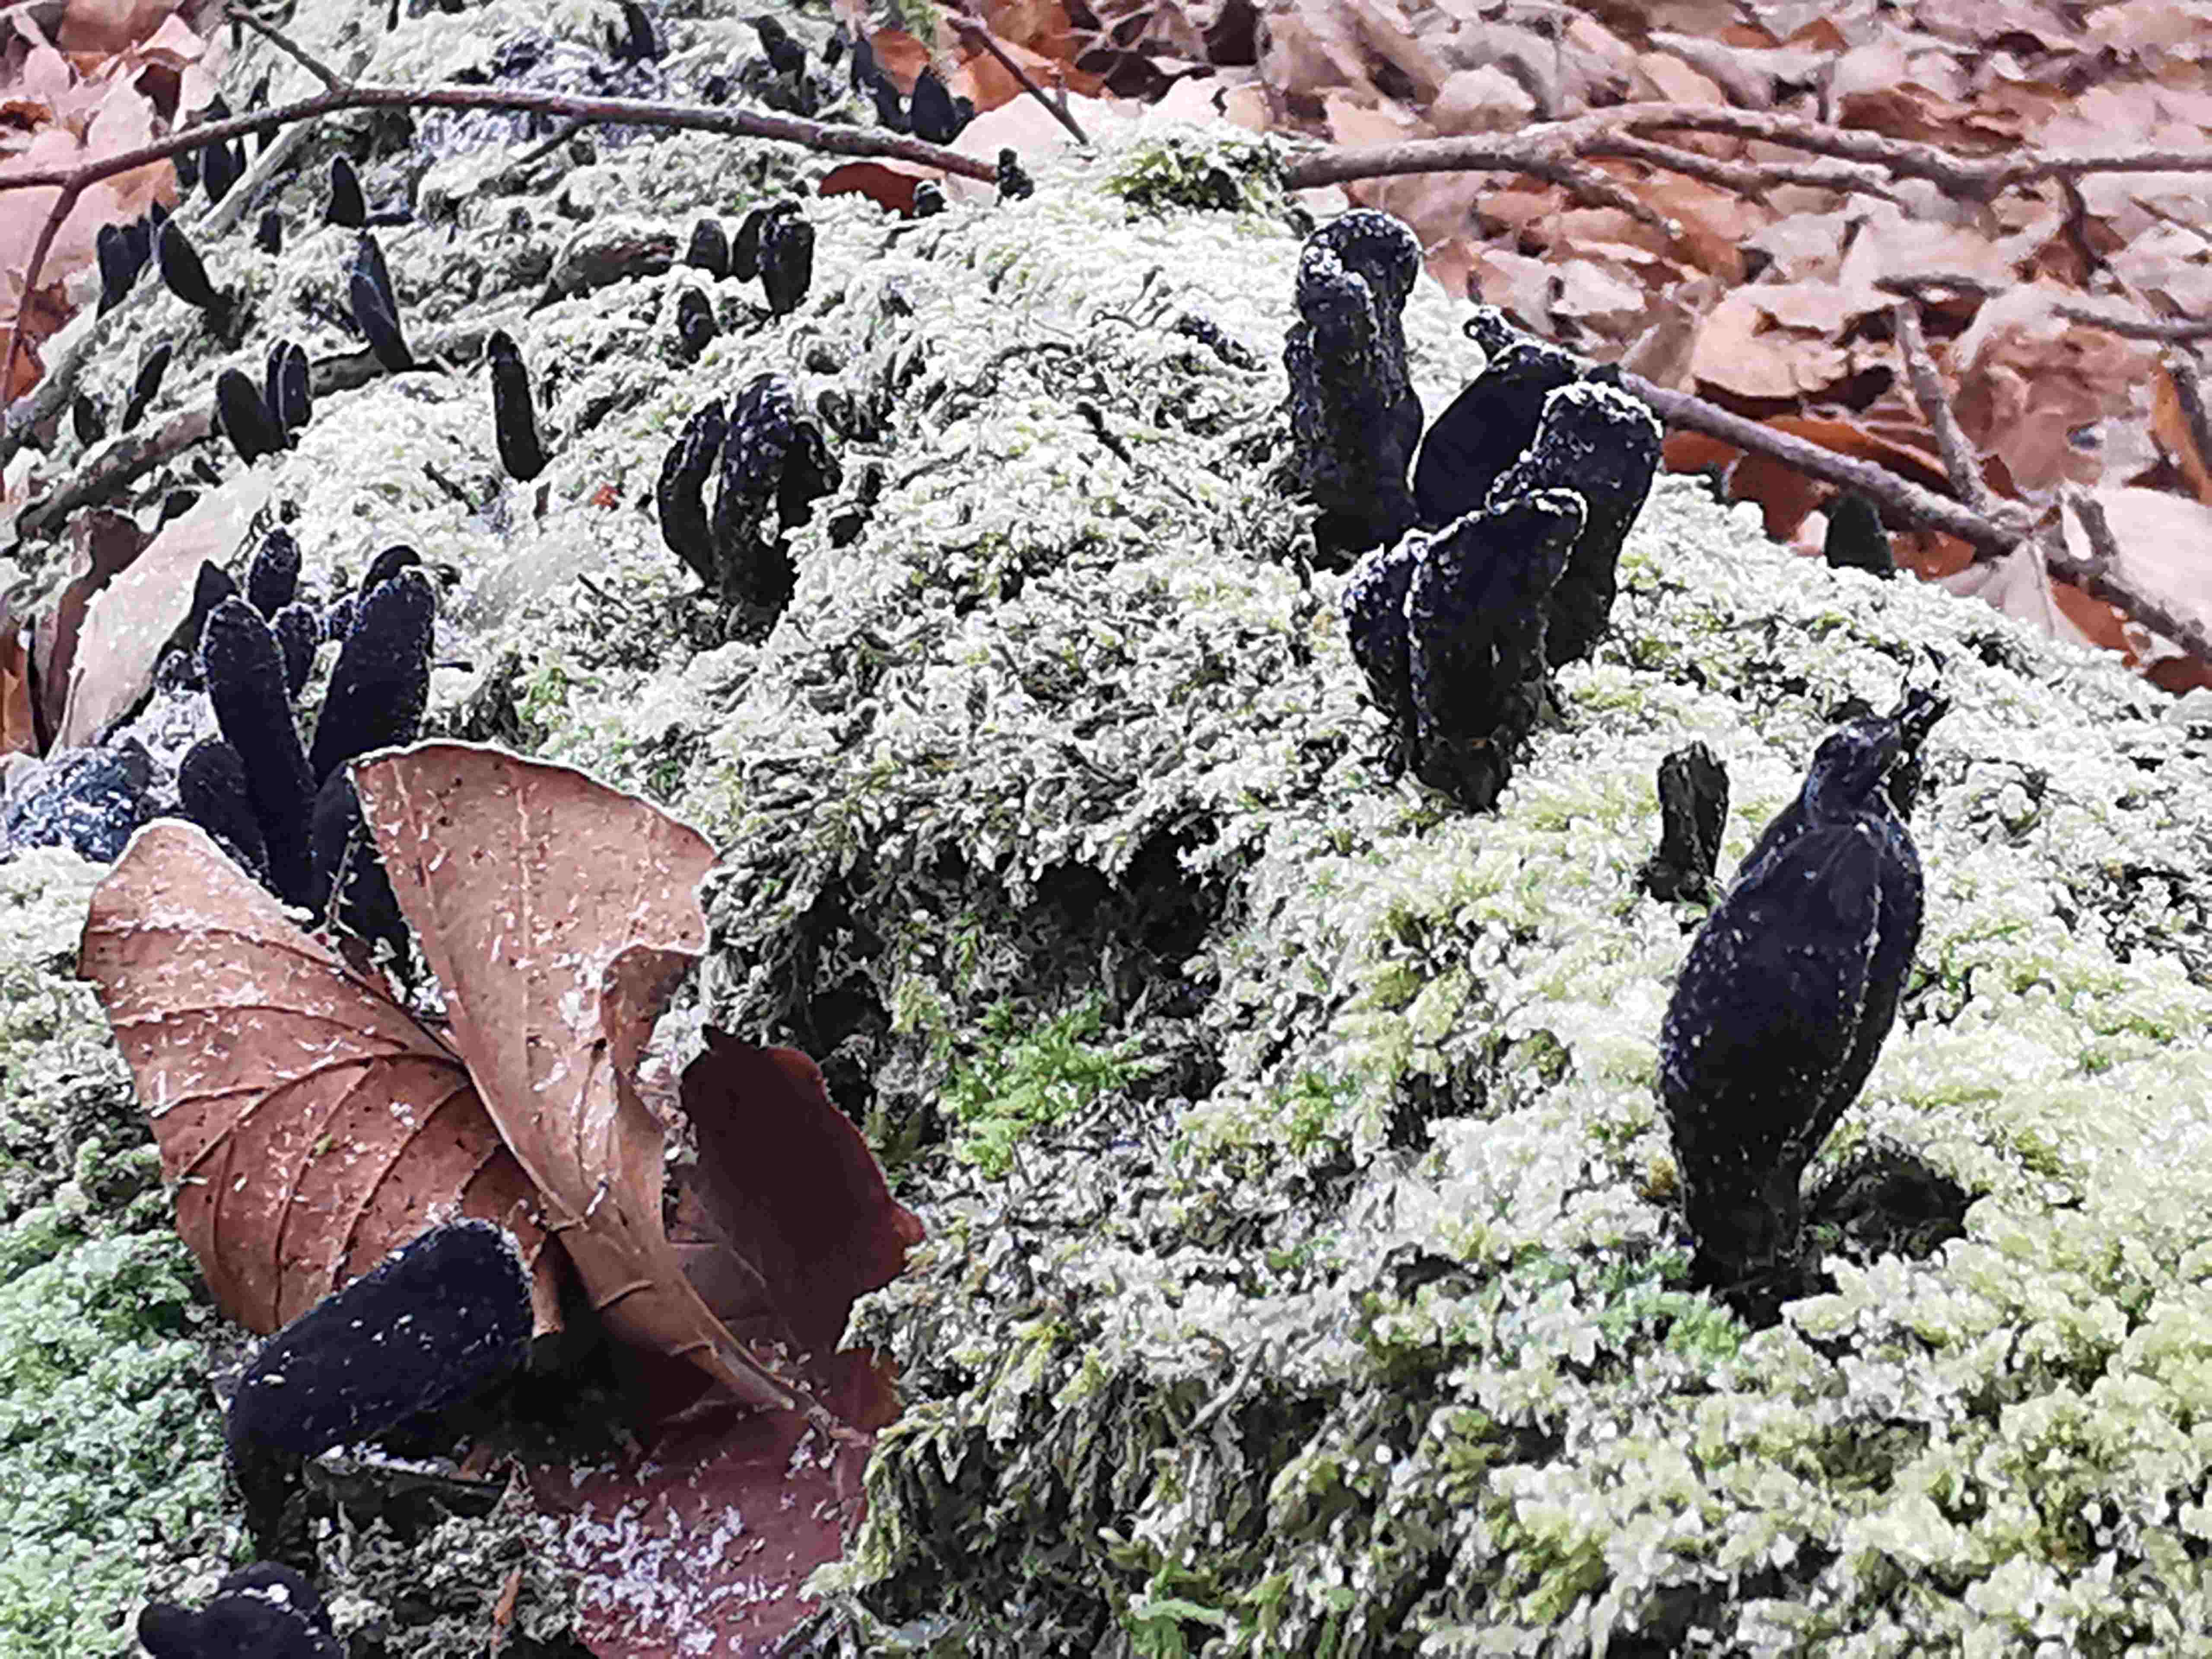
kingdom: Fungi
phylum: Ascomycota
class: Sordariomycetes
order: Xylariales
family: Xylariaceae
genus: Xylaria
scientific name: Xylaria longipes
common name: slank stødsvamp
